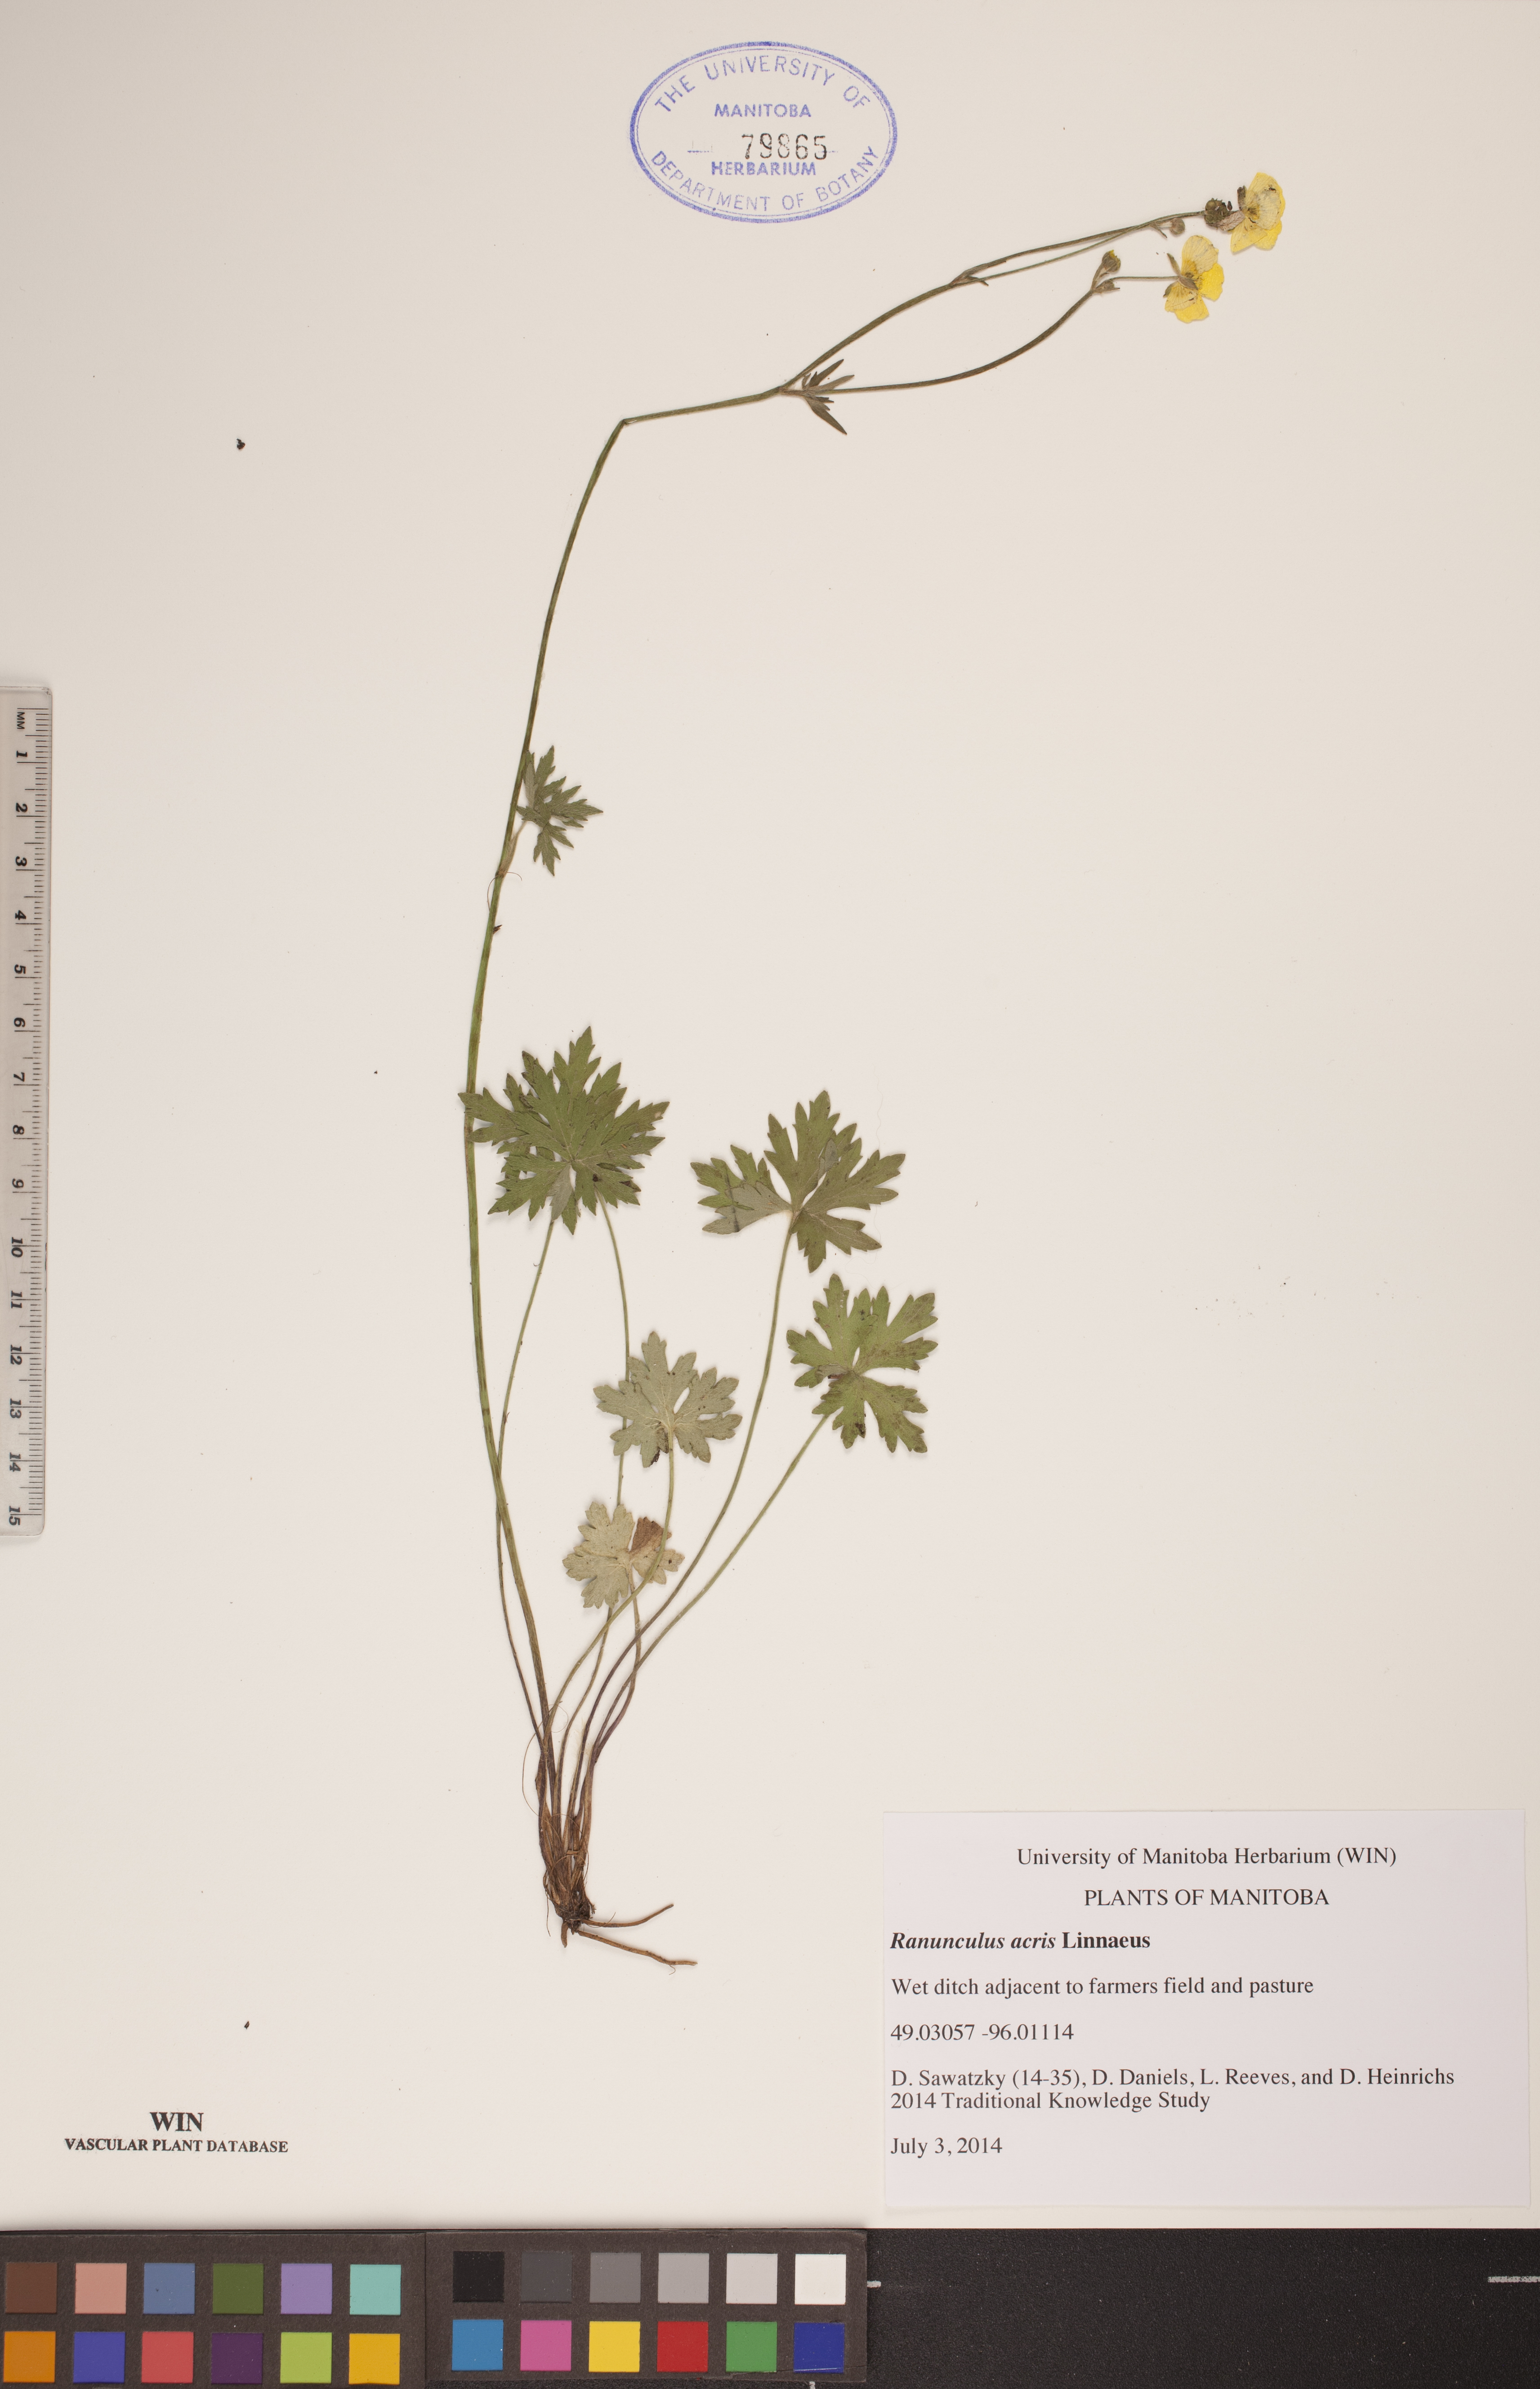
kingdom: Plantae
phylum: Tracheophyta
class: Magnoliopsida
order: Ranunculales
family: Ranunculaceae
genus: Ranunculus
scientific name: Ranunculus acris
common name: Meadow buttercup
